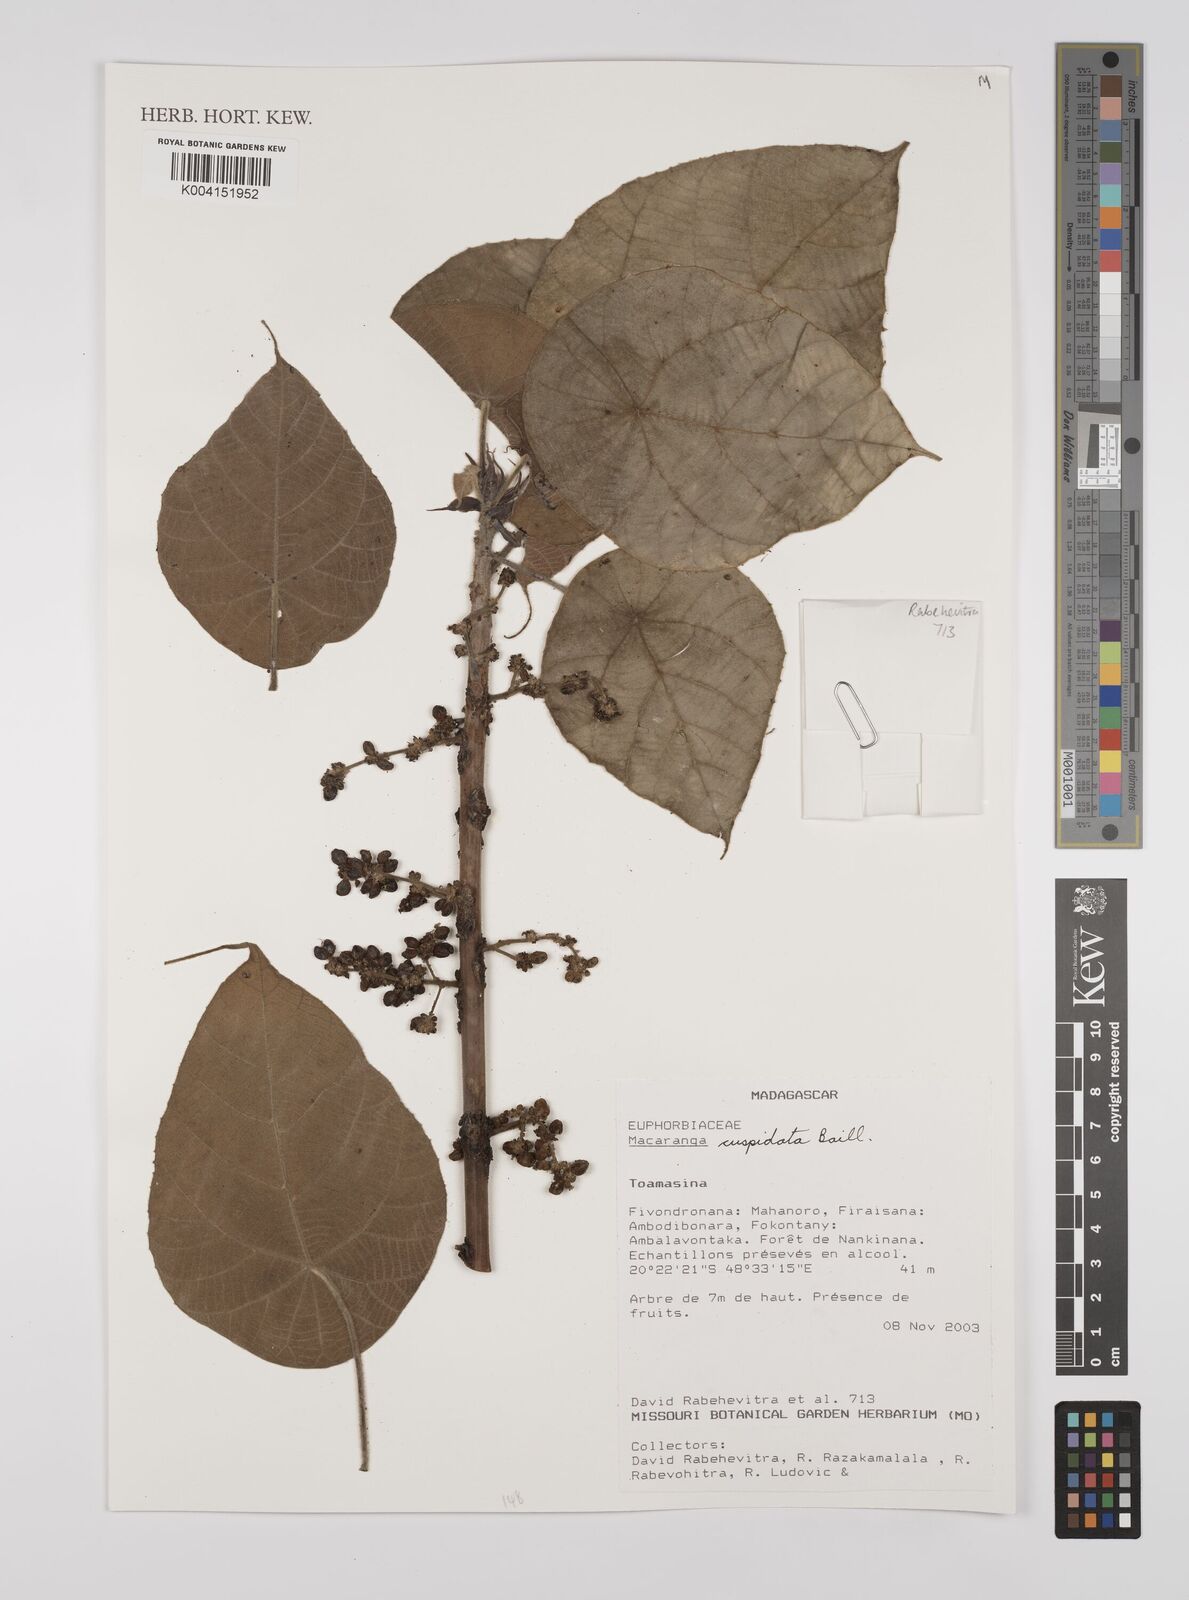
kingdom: Plantae
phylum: Tracheophyta
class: Magnoliopsida
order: Malpighiales
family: Euphorbiaceae
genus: Macaranga
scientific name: Macaranga cuspidata
